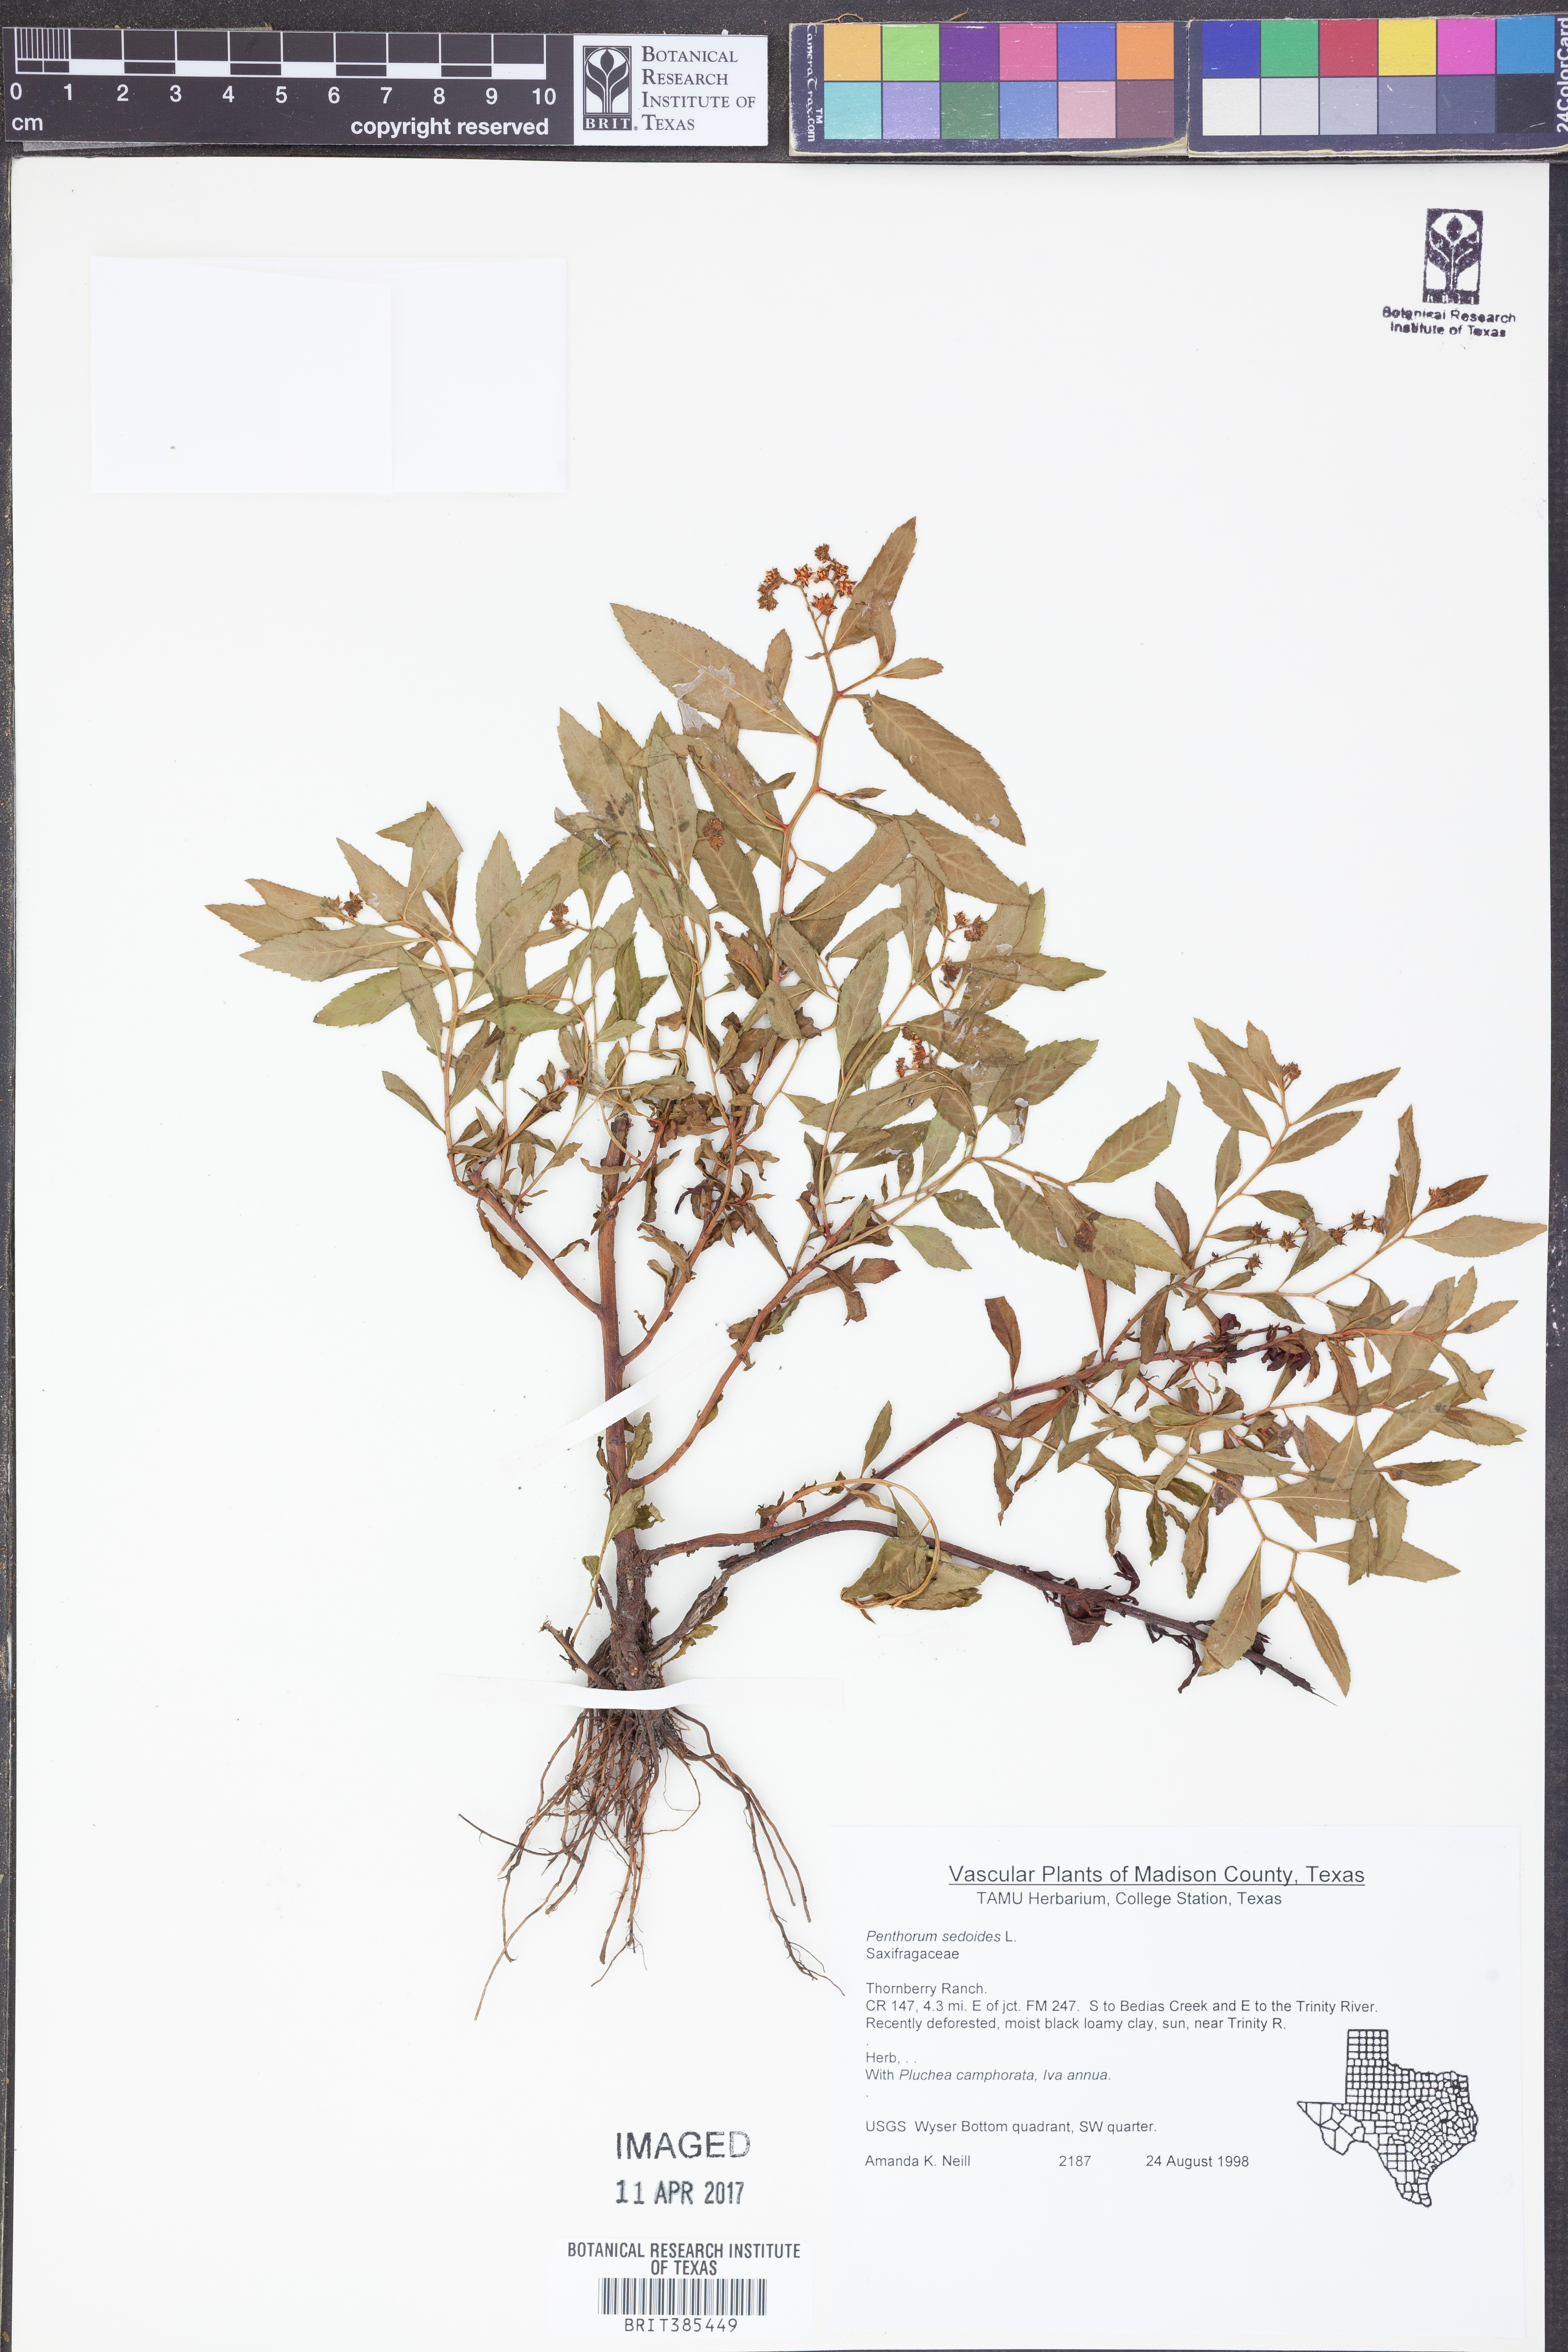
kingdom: Plantae
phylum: Tracheophyta
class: Magnoliopsida
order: Saxifragales
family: Penthoraceae
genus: Penthorum
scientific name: Penthorum sedoides
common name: Ditch stonecrop
